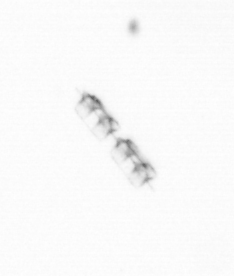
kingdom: Chromista
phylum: Ochrophyta
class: Bacillariophyceae
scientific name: Bacillariophyceae
